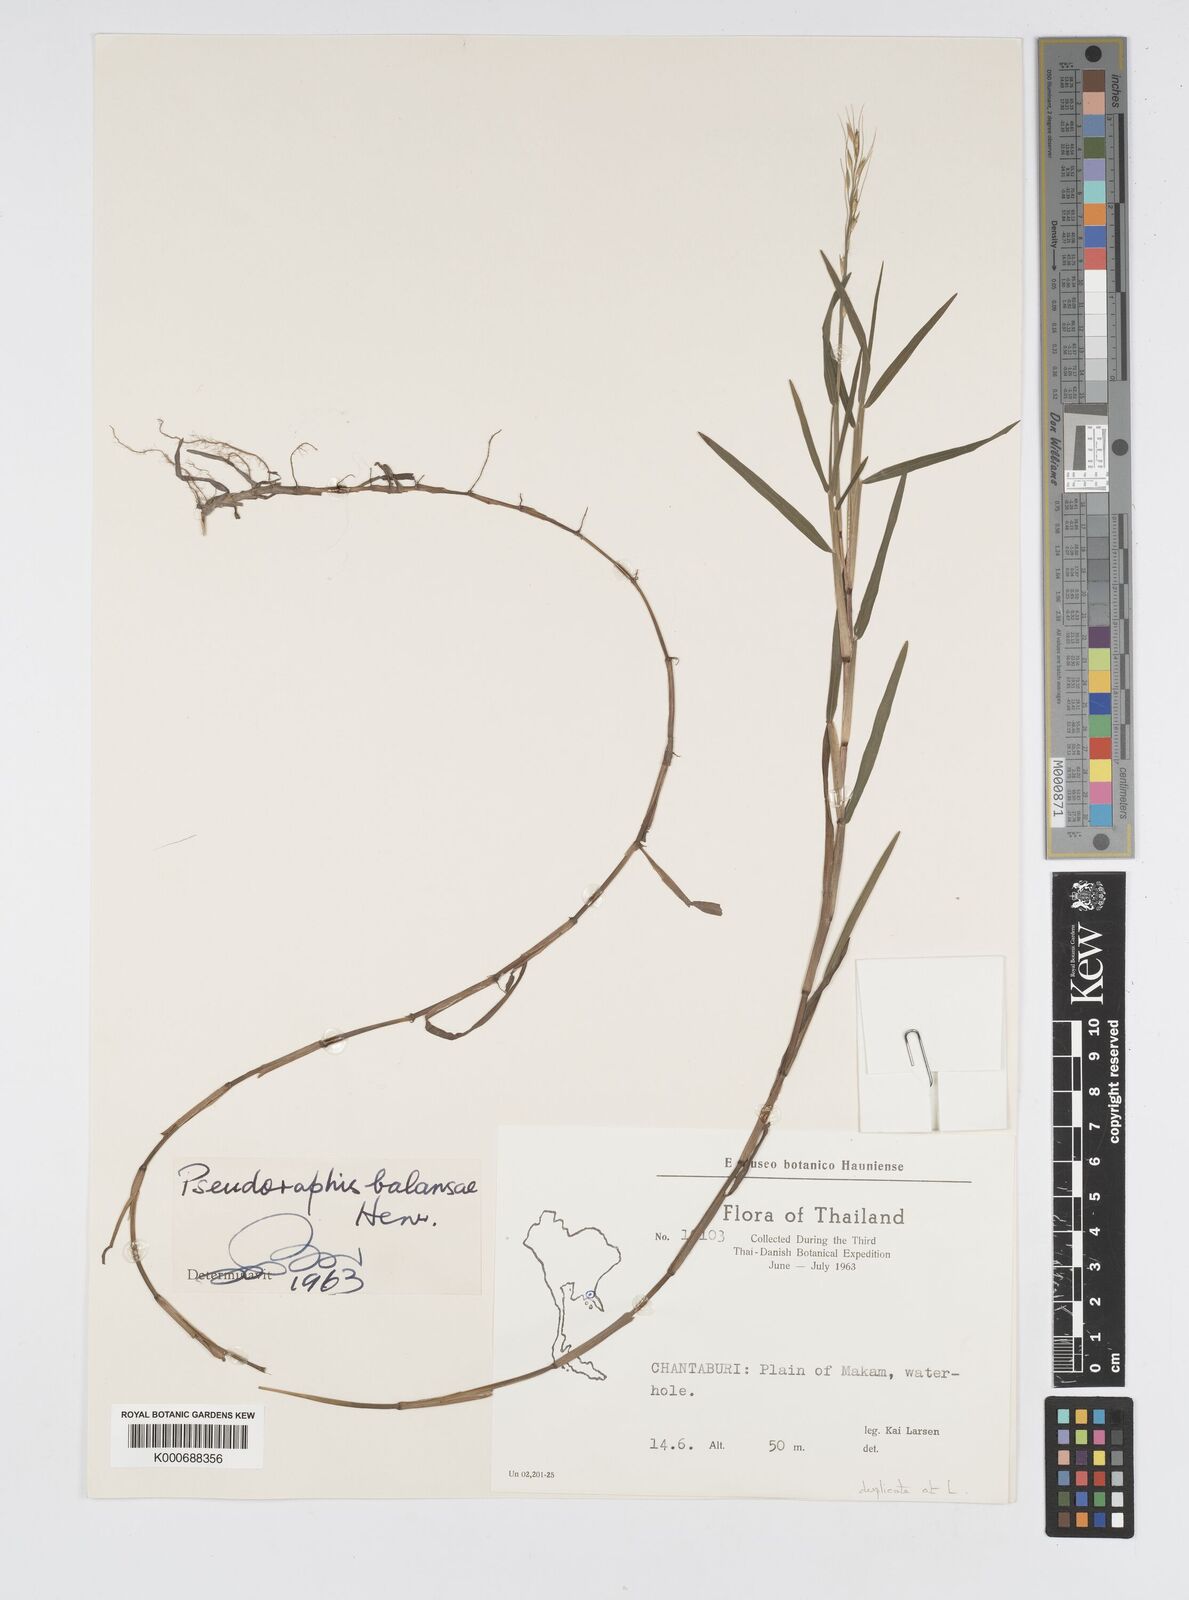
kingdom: Plantae
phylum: Tracheophyta
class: Liliopsida
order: Poales
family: Poaceae
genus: Pseudoraphis
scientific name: Pseudoraphis balansae
